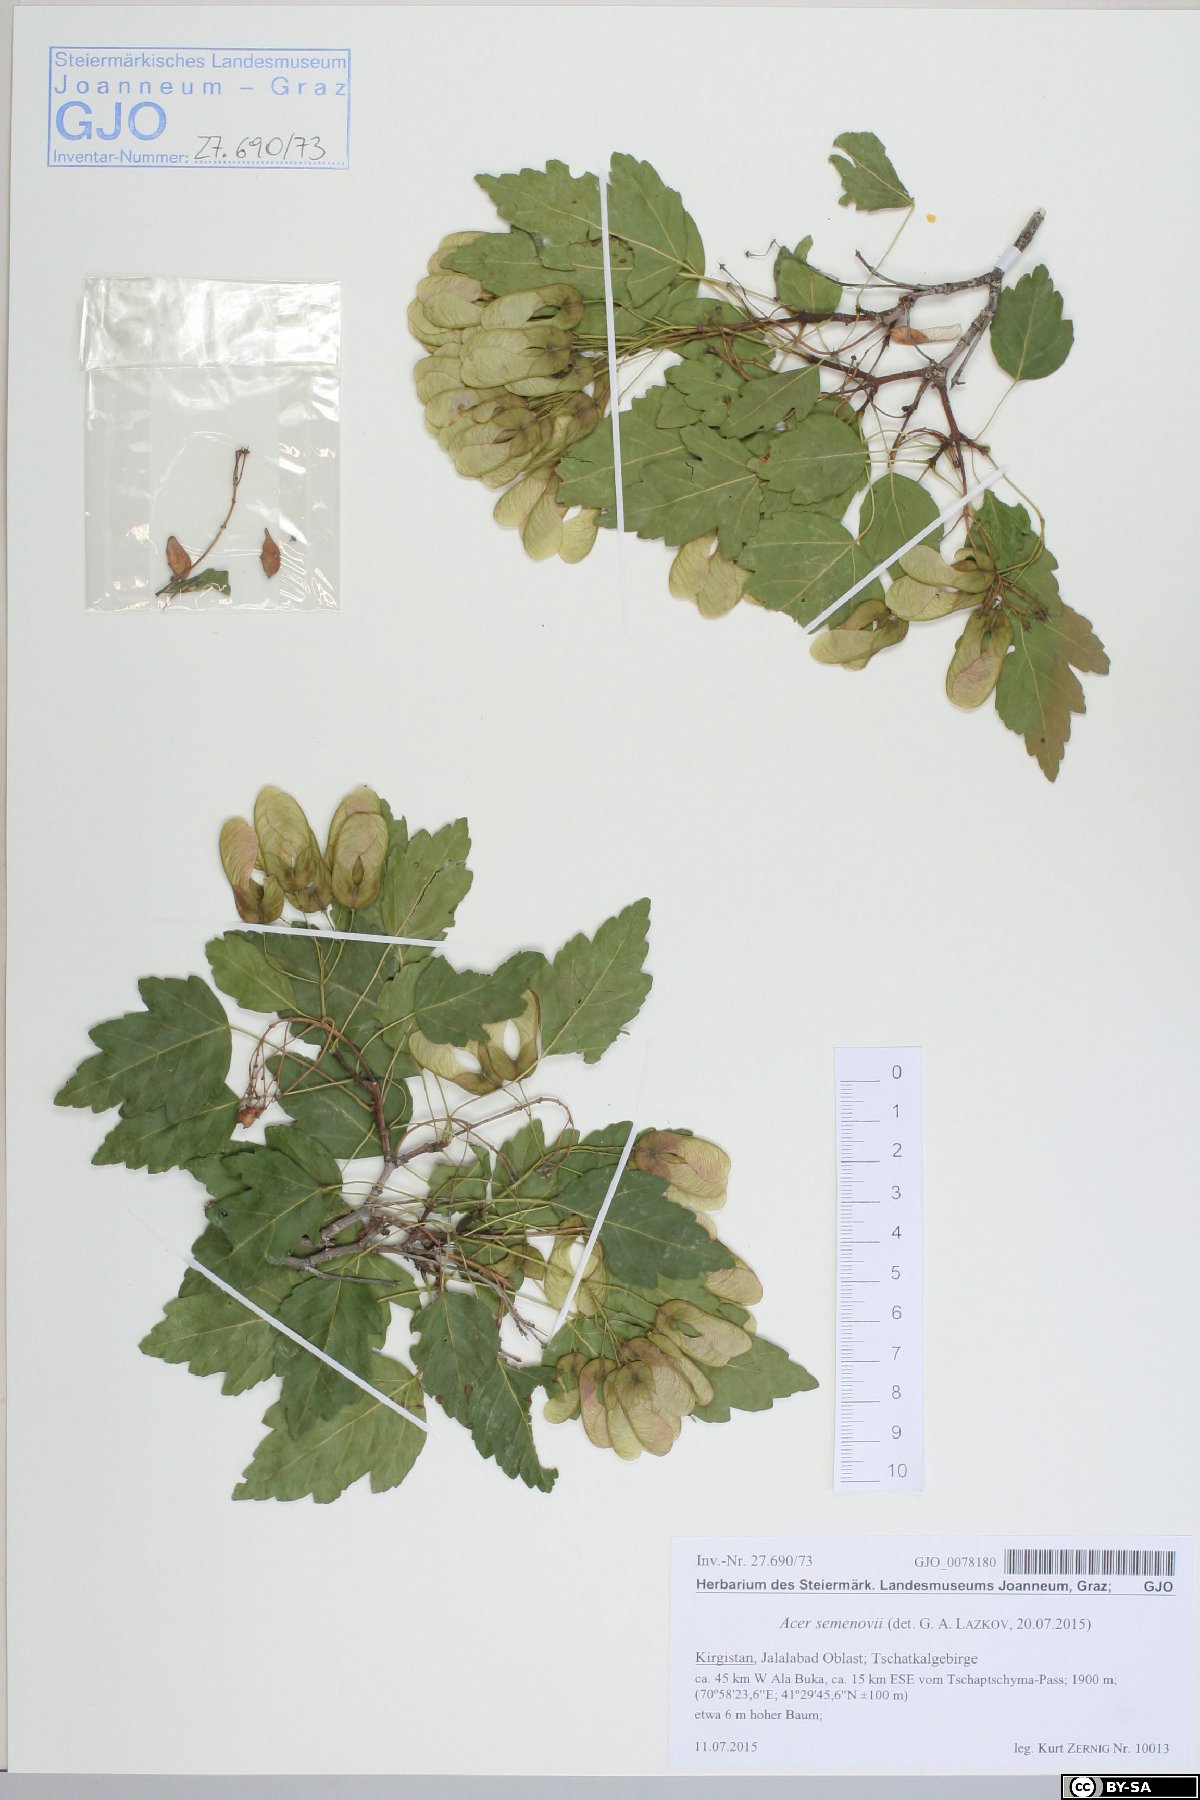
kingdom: Plantae
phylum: Tracheophyta
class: Magnoliopsida
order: Sapindales
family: Sapindaceae
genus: Acer
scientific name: Acer tataricum
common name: Tartar maple
